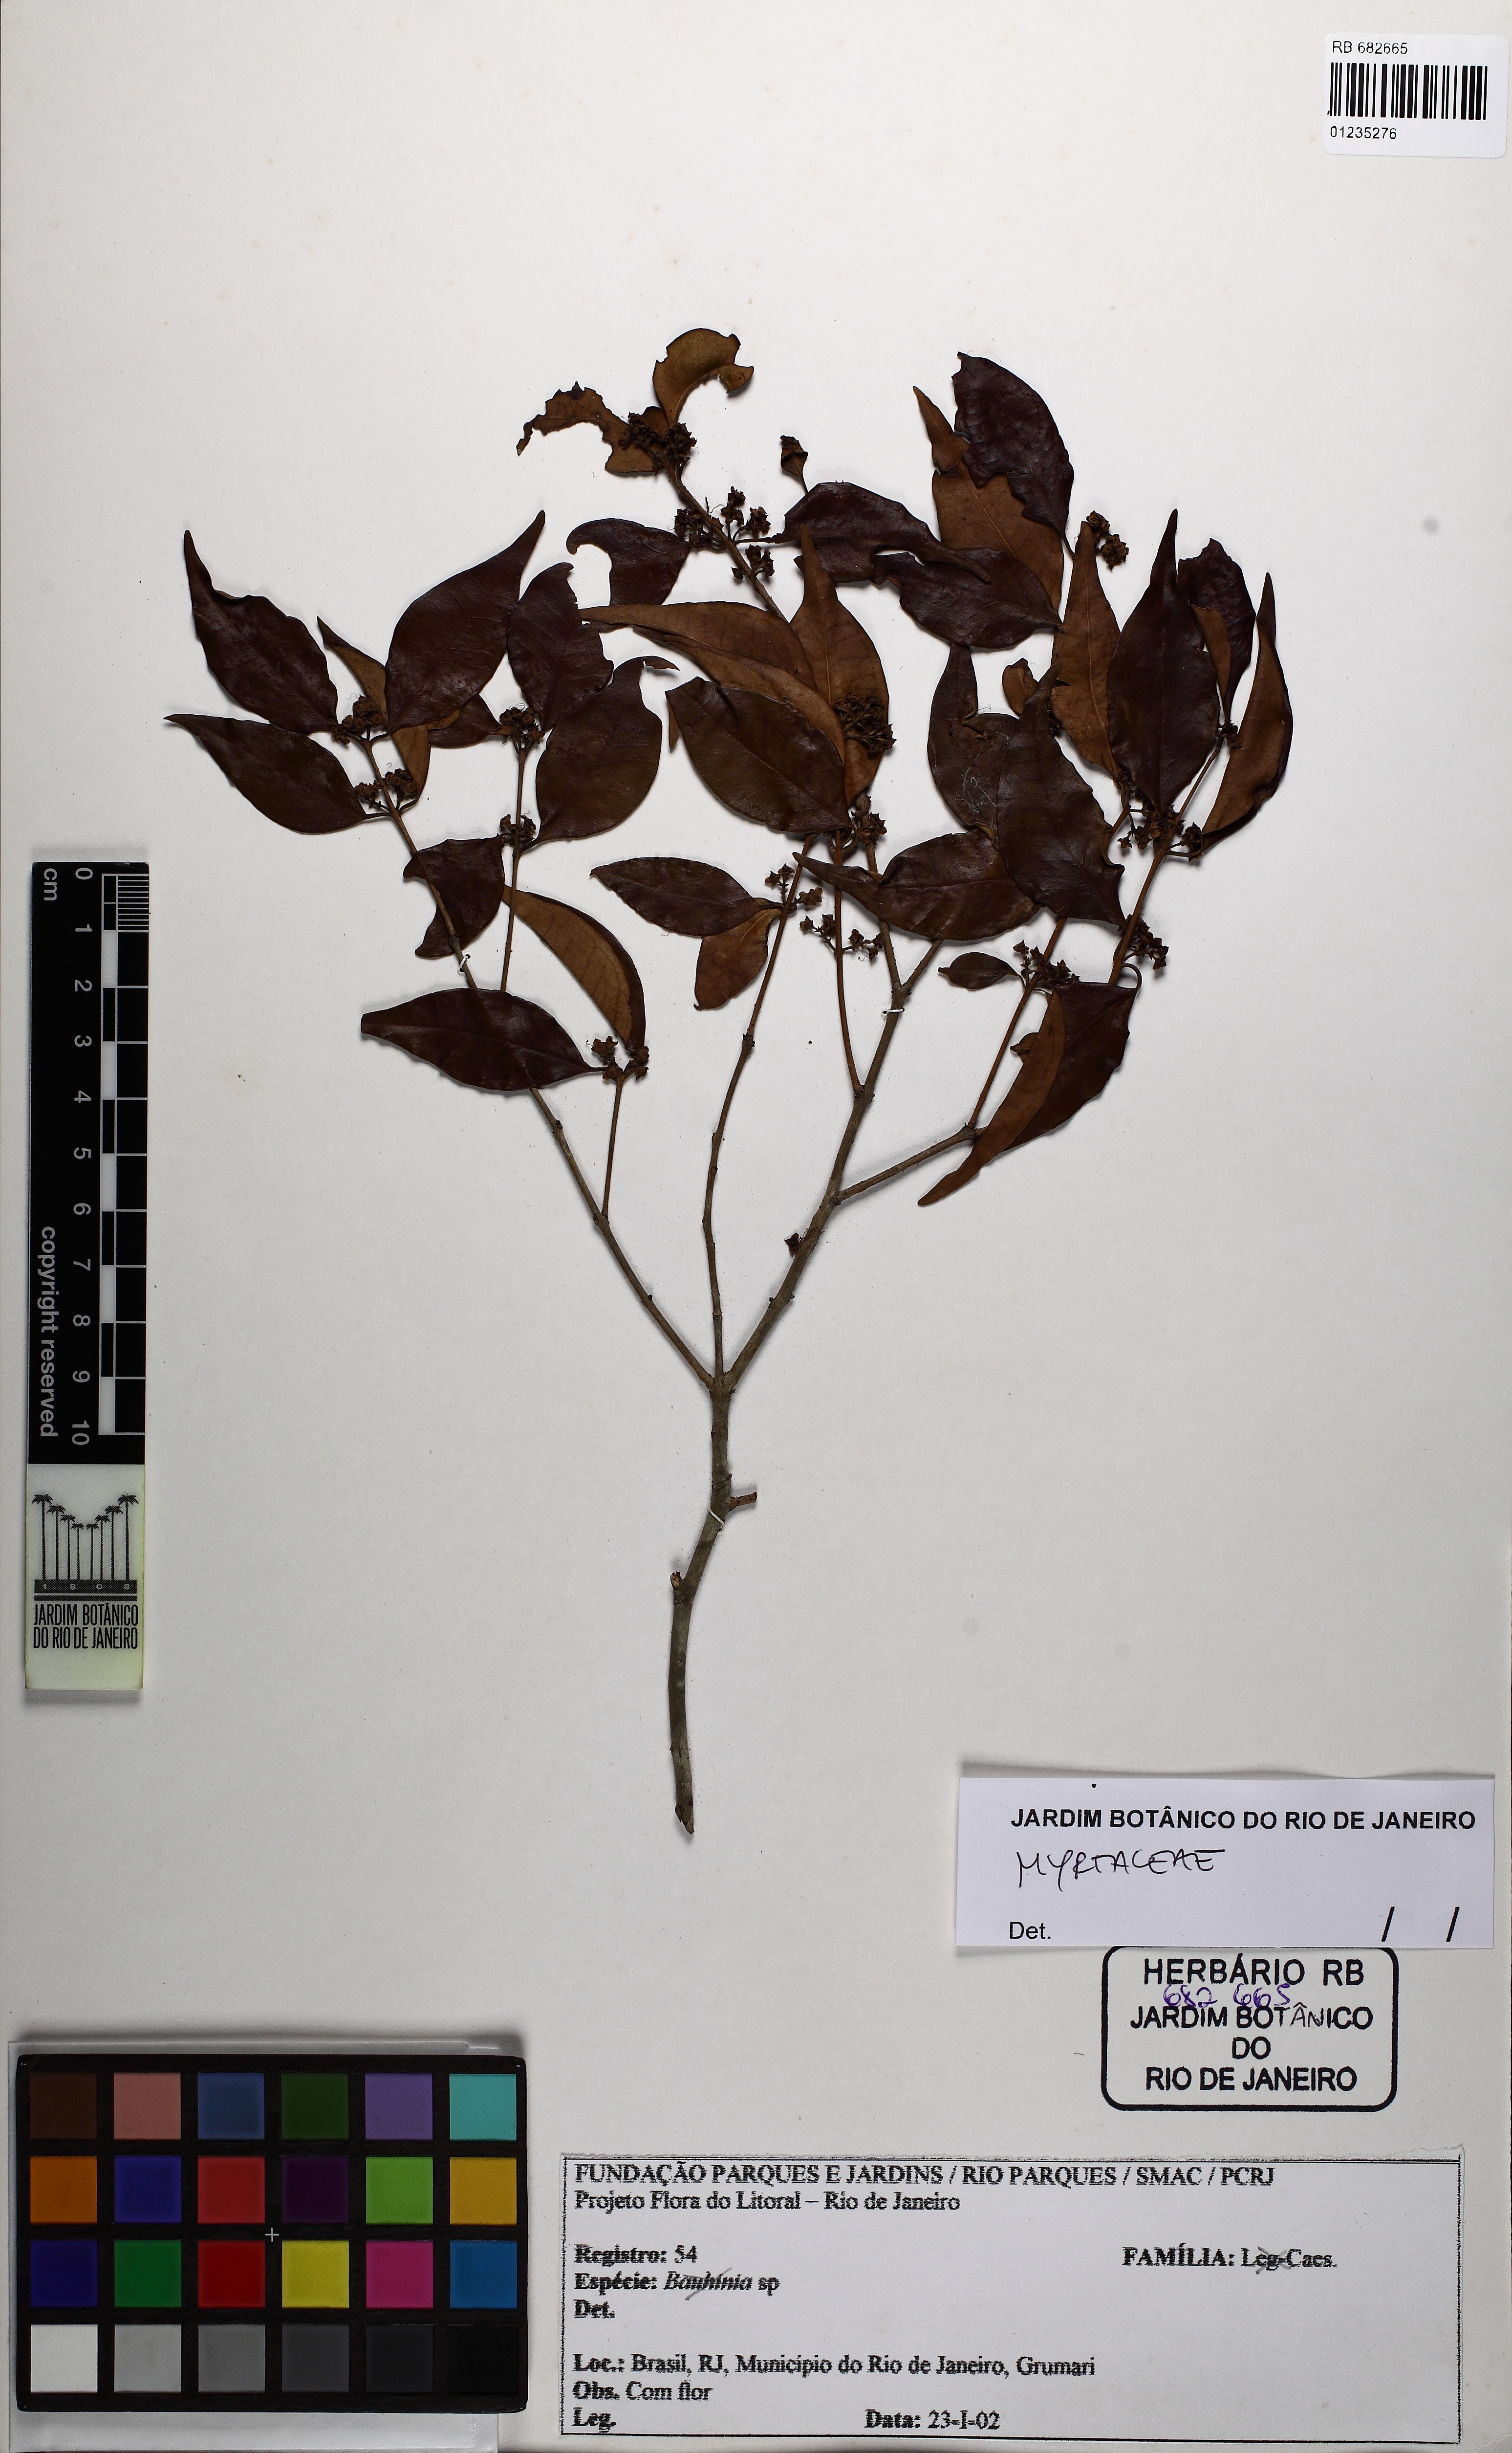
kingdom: Plantae
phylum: Tracheophyta
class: Magnoliopsida
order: Myrtales
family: Myrtaceae
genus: Eugenia
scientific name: Eugenia repanda
